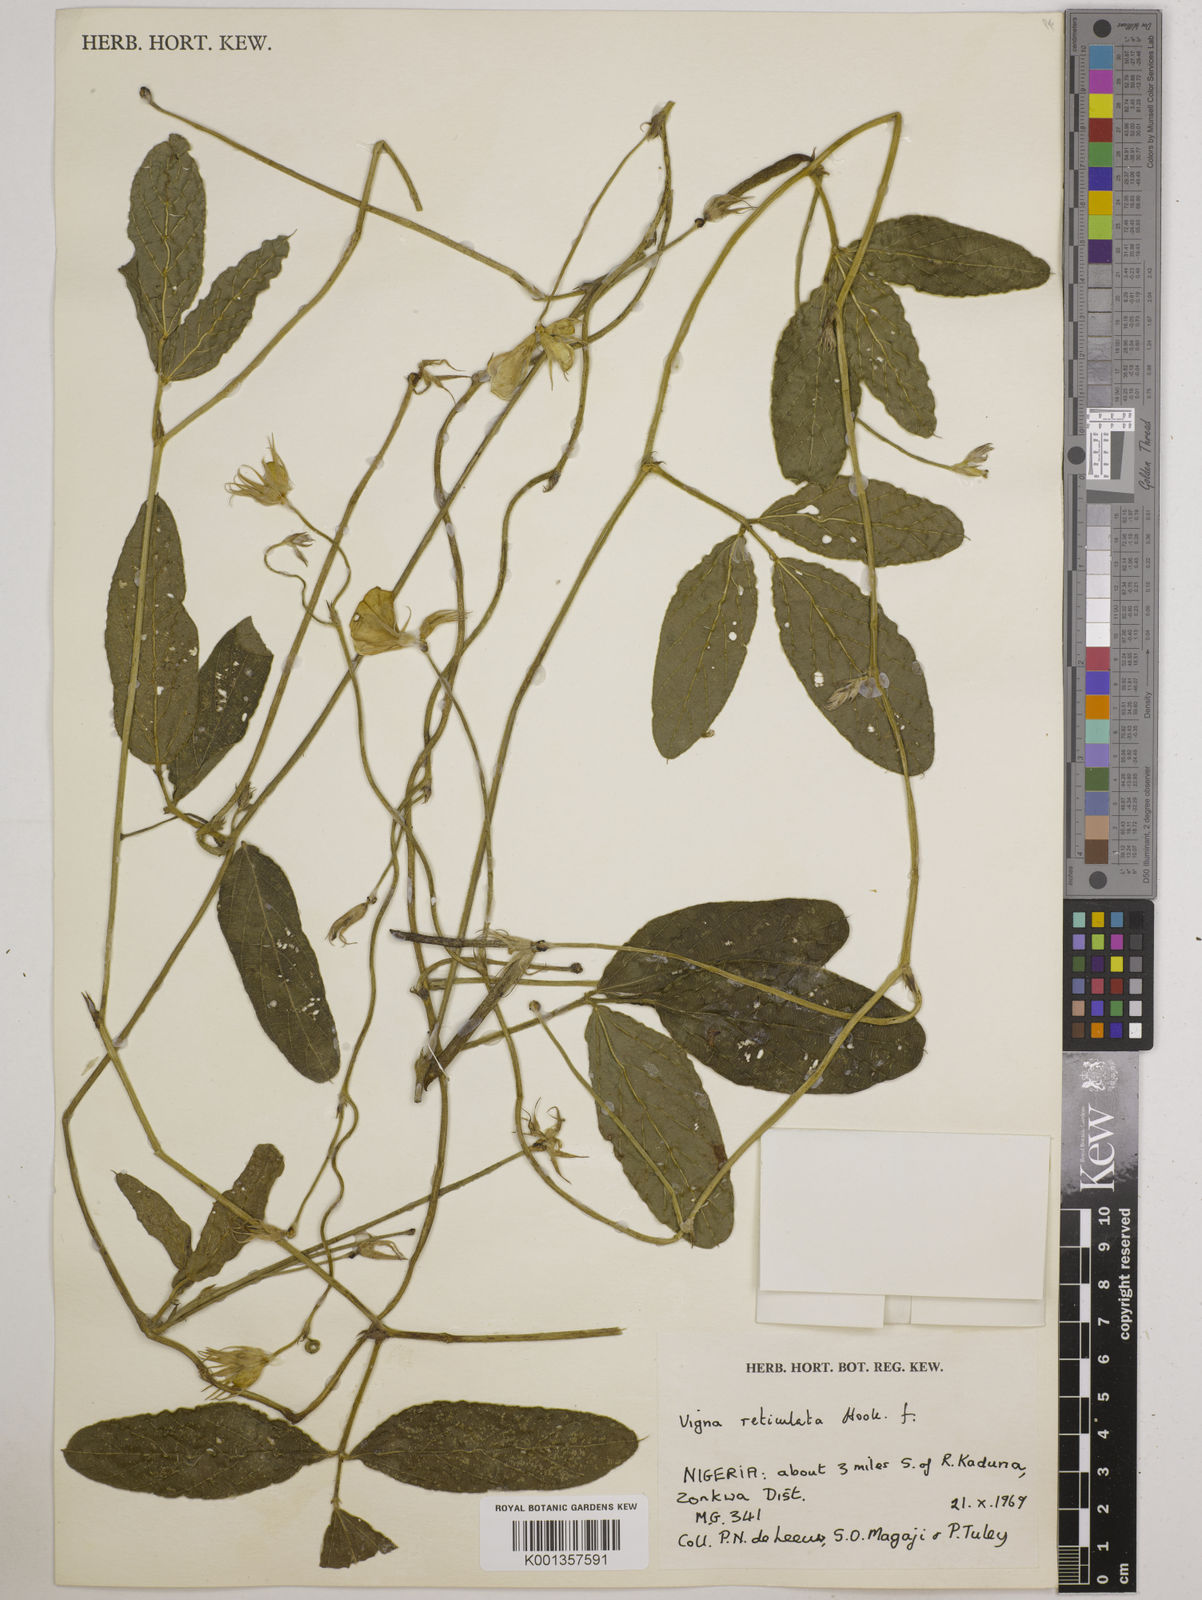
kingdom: Plantae
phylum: Tracheophyta
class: Magnoliopsida
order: Fabales
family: Fabaceae
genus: Vigna
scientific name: Vigna reticulata
